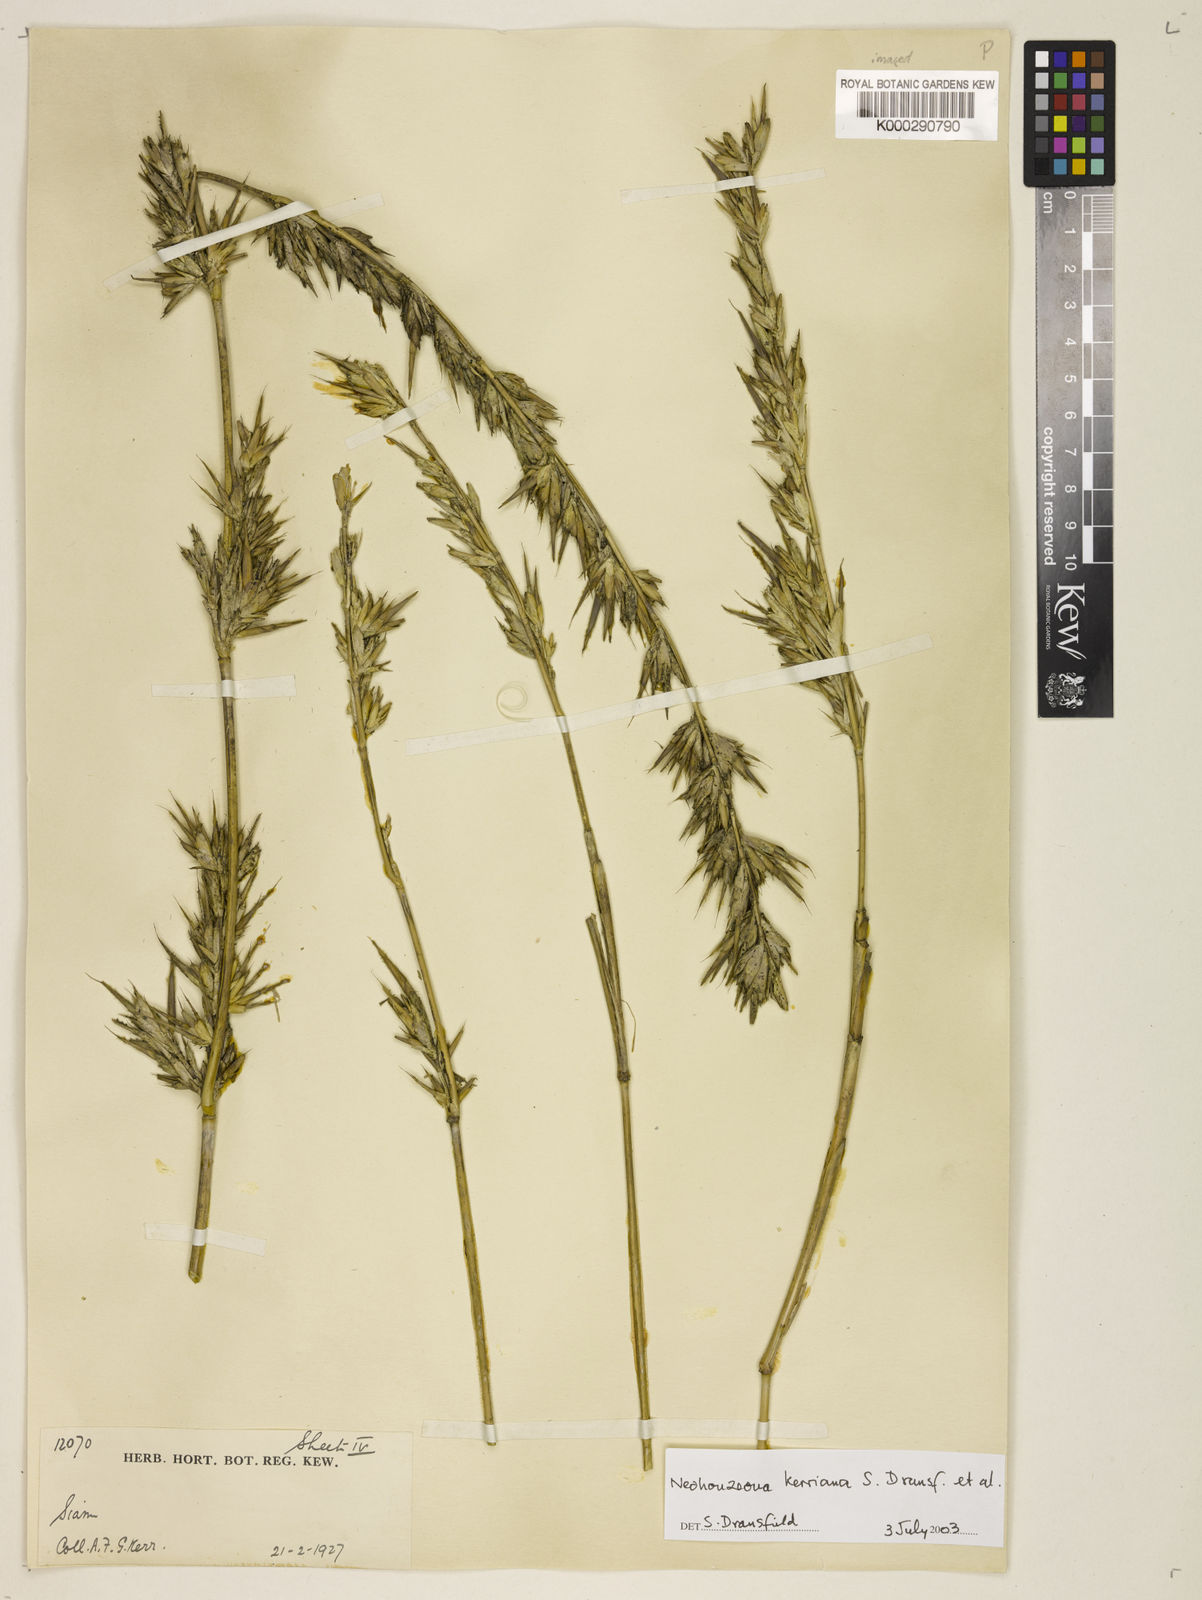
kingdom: Plantae
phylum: Tracheophyta
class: Liliopsida
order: Poales
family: Poaceae
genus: Schizostachyum
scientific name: Schizostachyum
